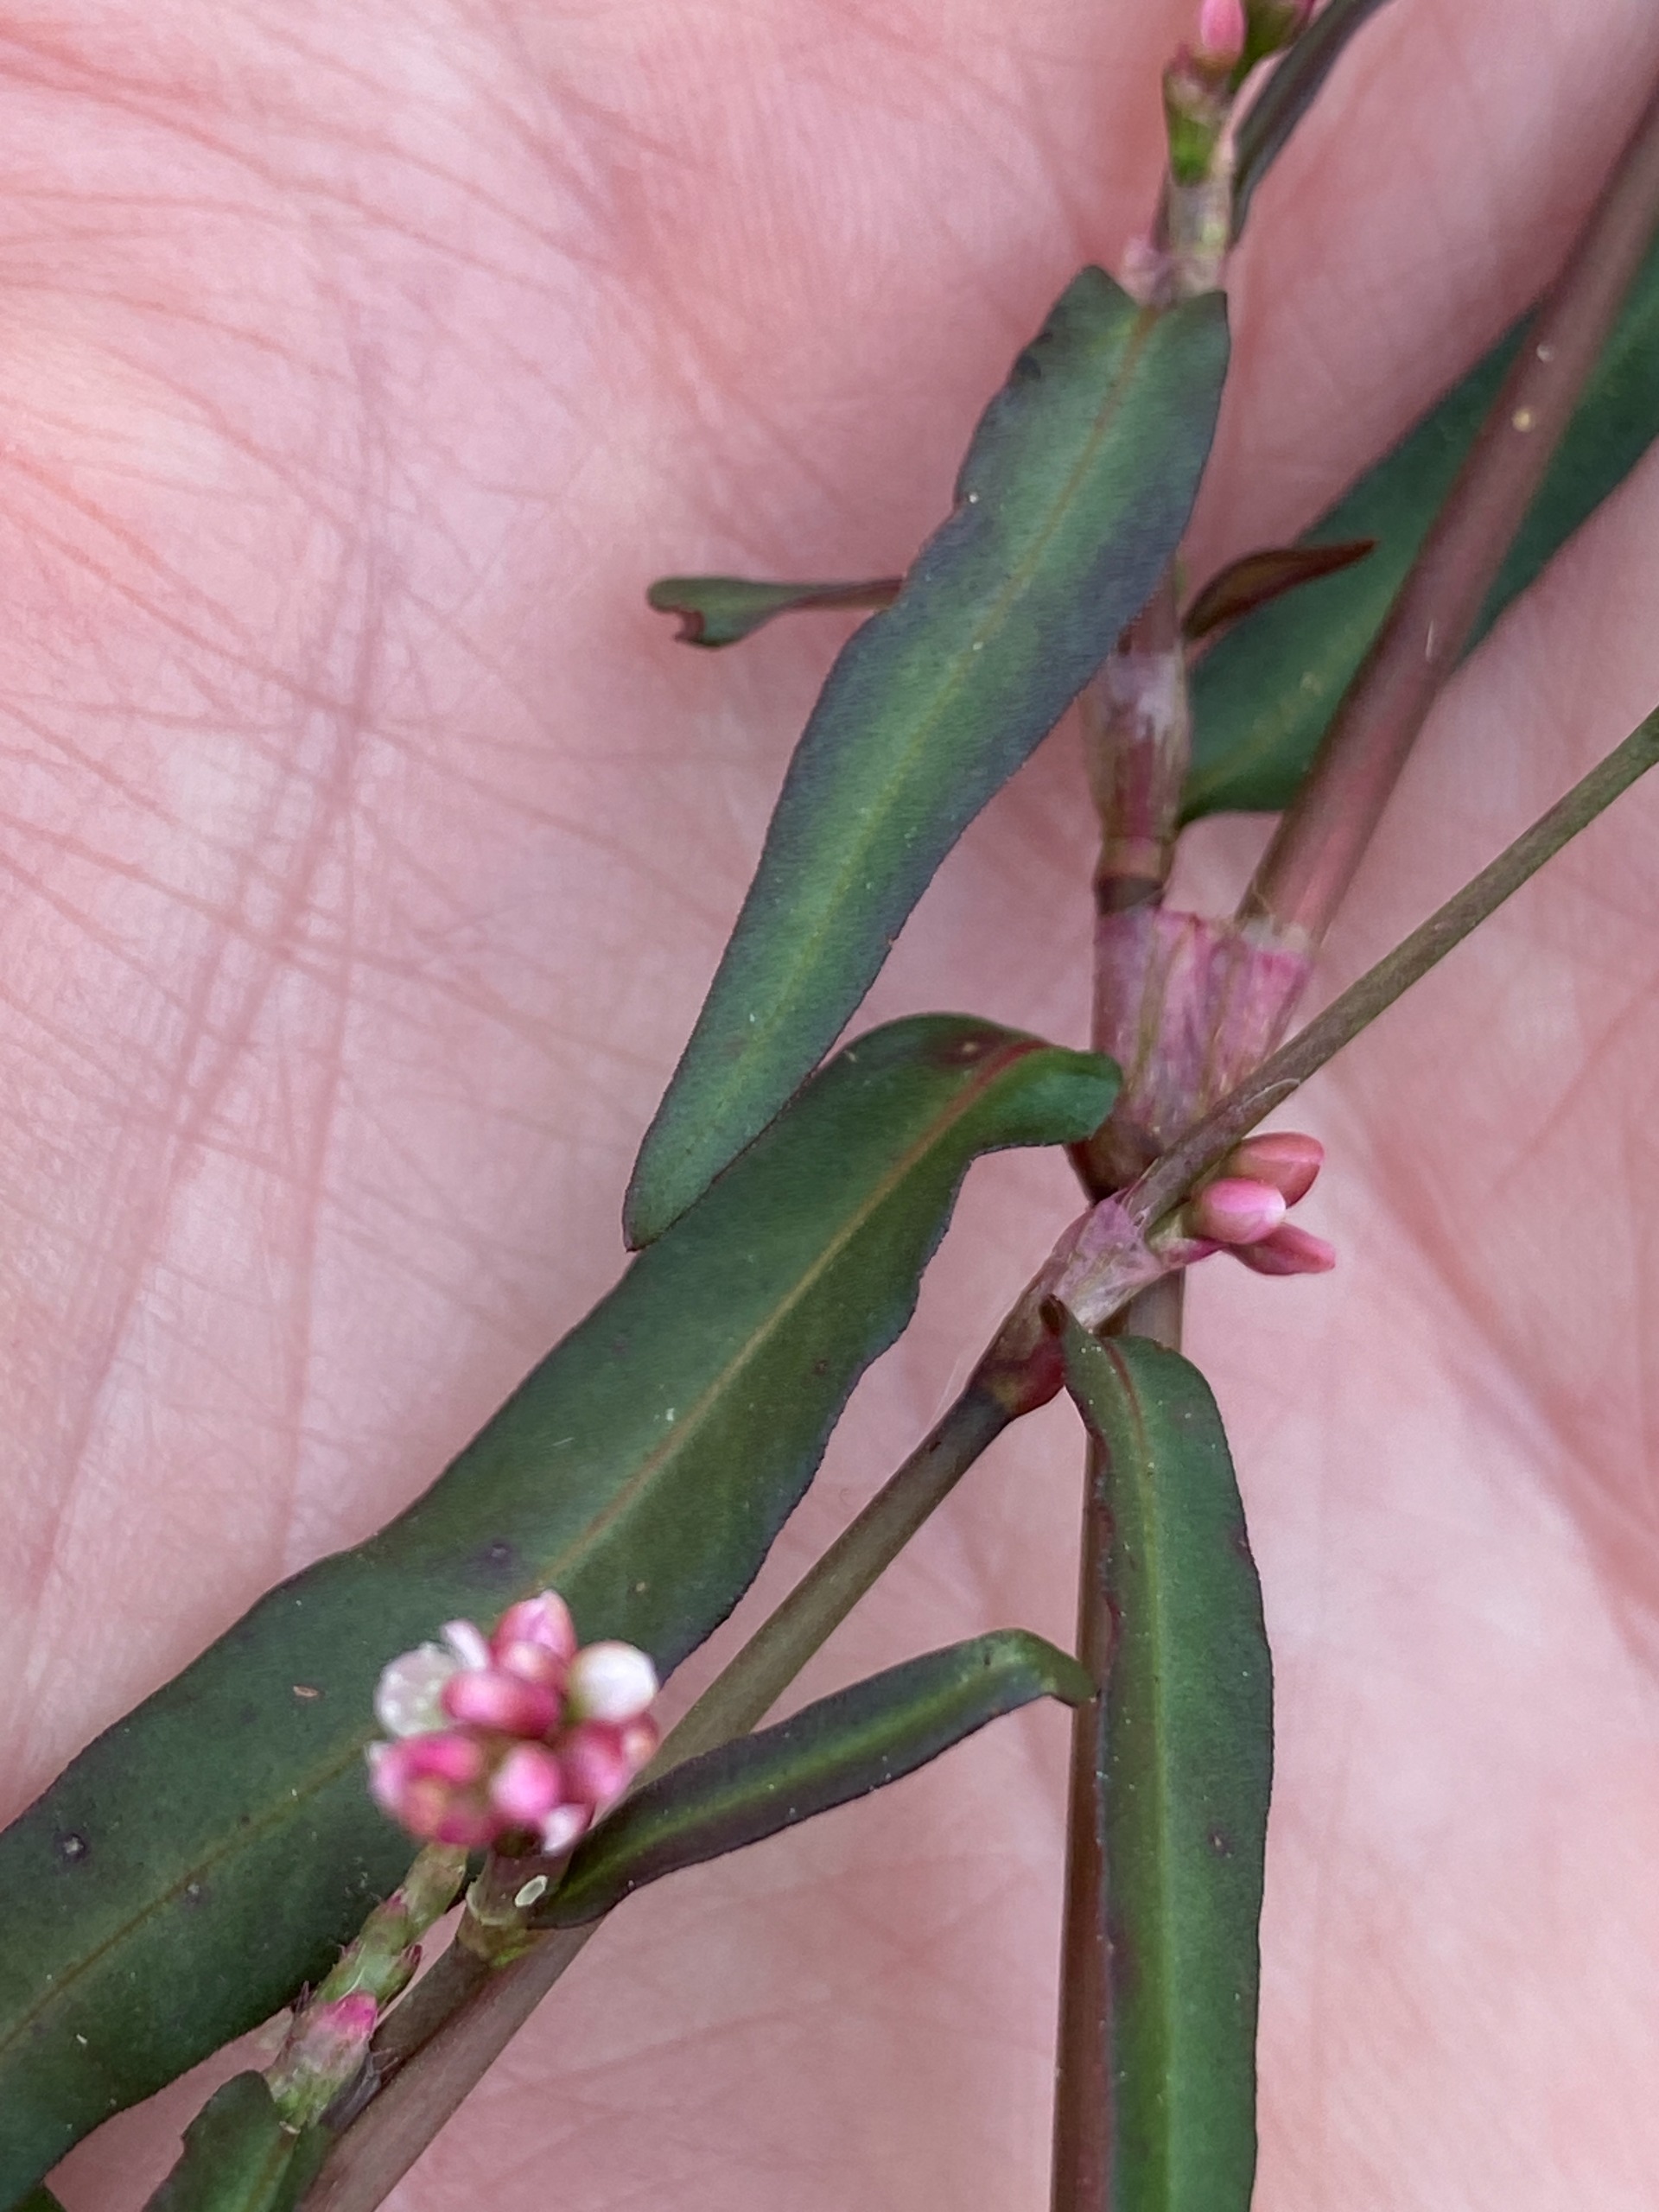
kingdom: Plantae
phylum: Tracheophyta
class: Magnoliopsida
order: Caryophyllales
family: Polygonaceae
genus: Persicaria
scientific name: Persicaria minor
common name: Liden pileurt
